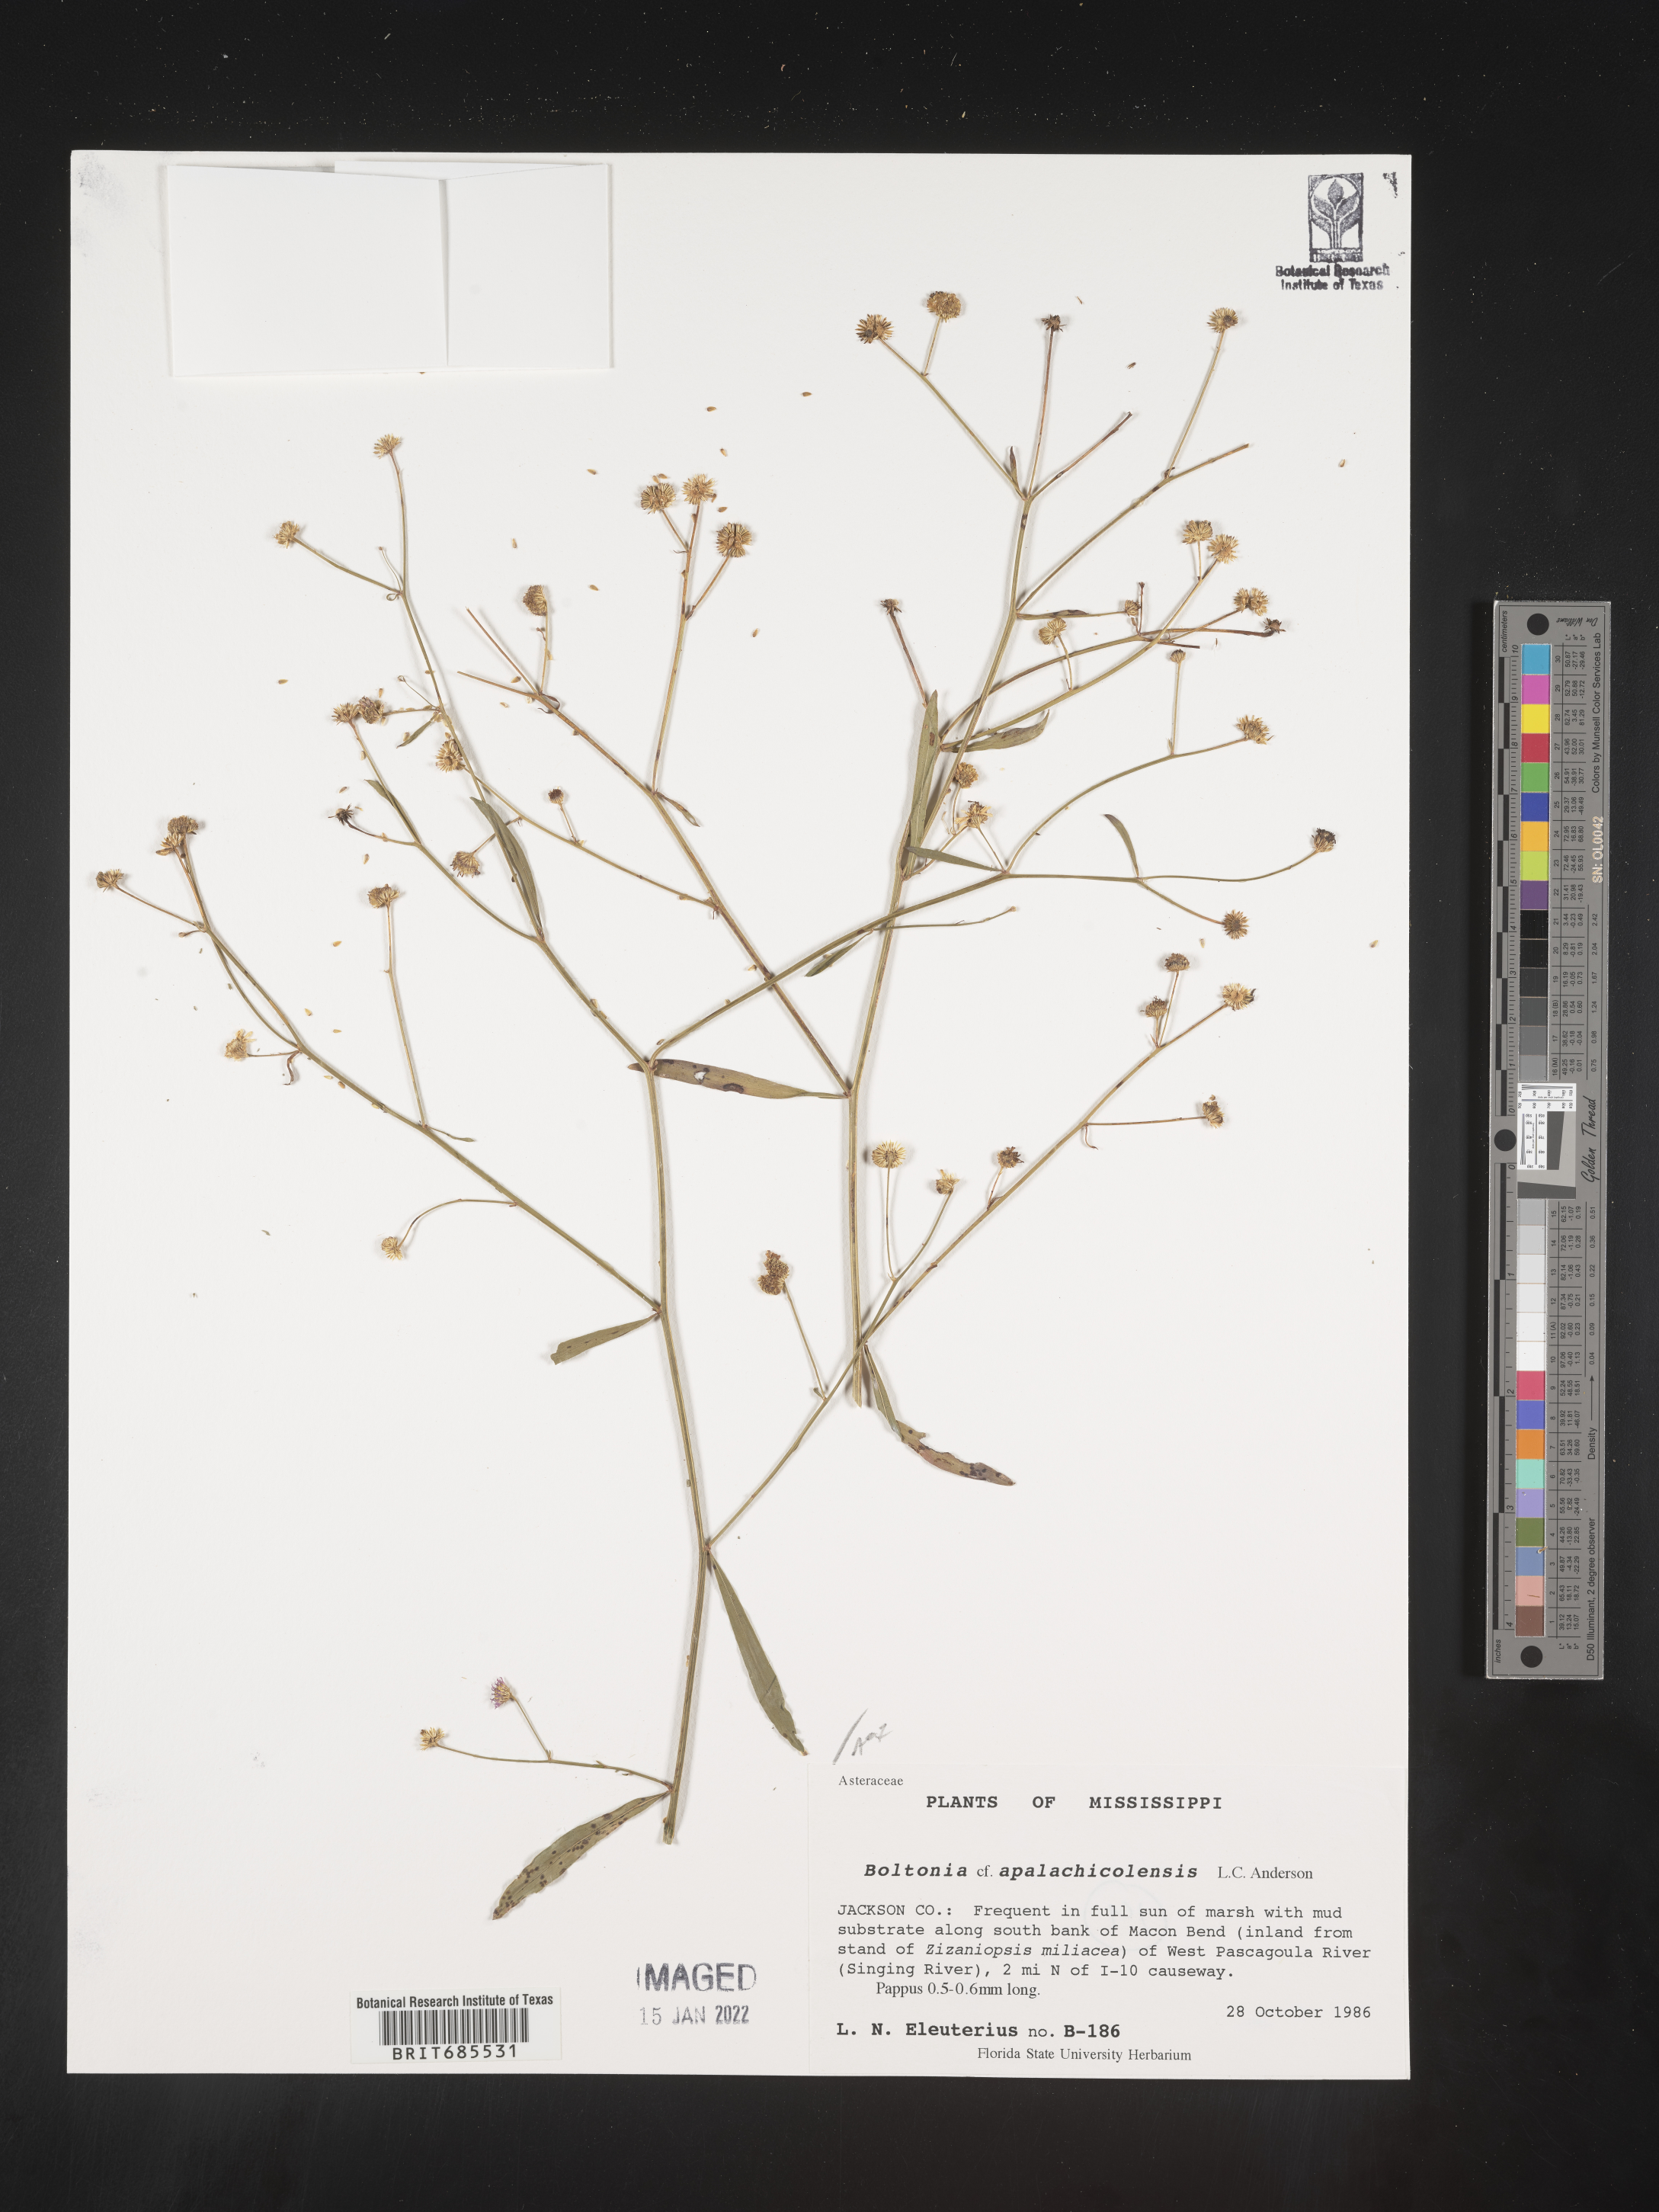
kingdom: Plantae
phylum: Tracheophyta
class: Magnoliopsida
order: Asterales
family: Asteraceae
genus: Boltonia
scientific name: Boltonia apalachicolensis
